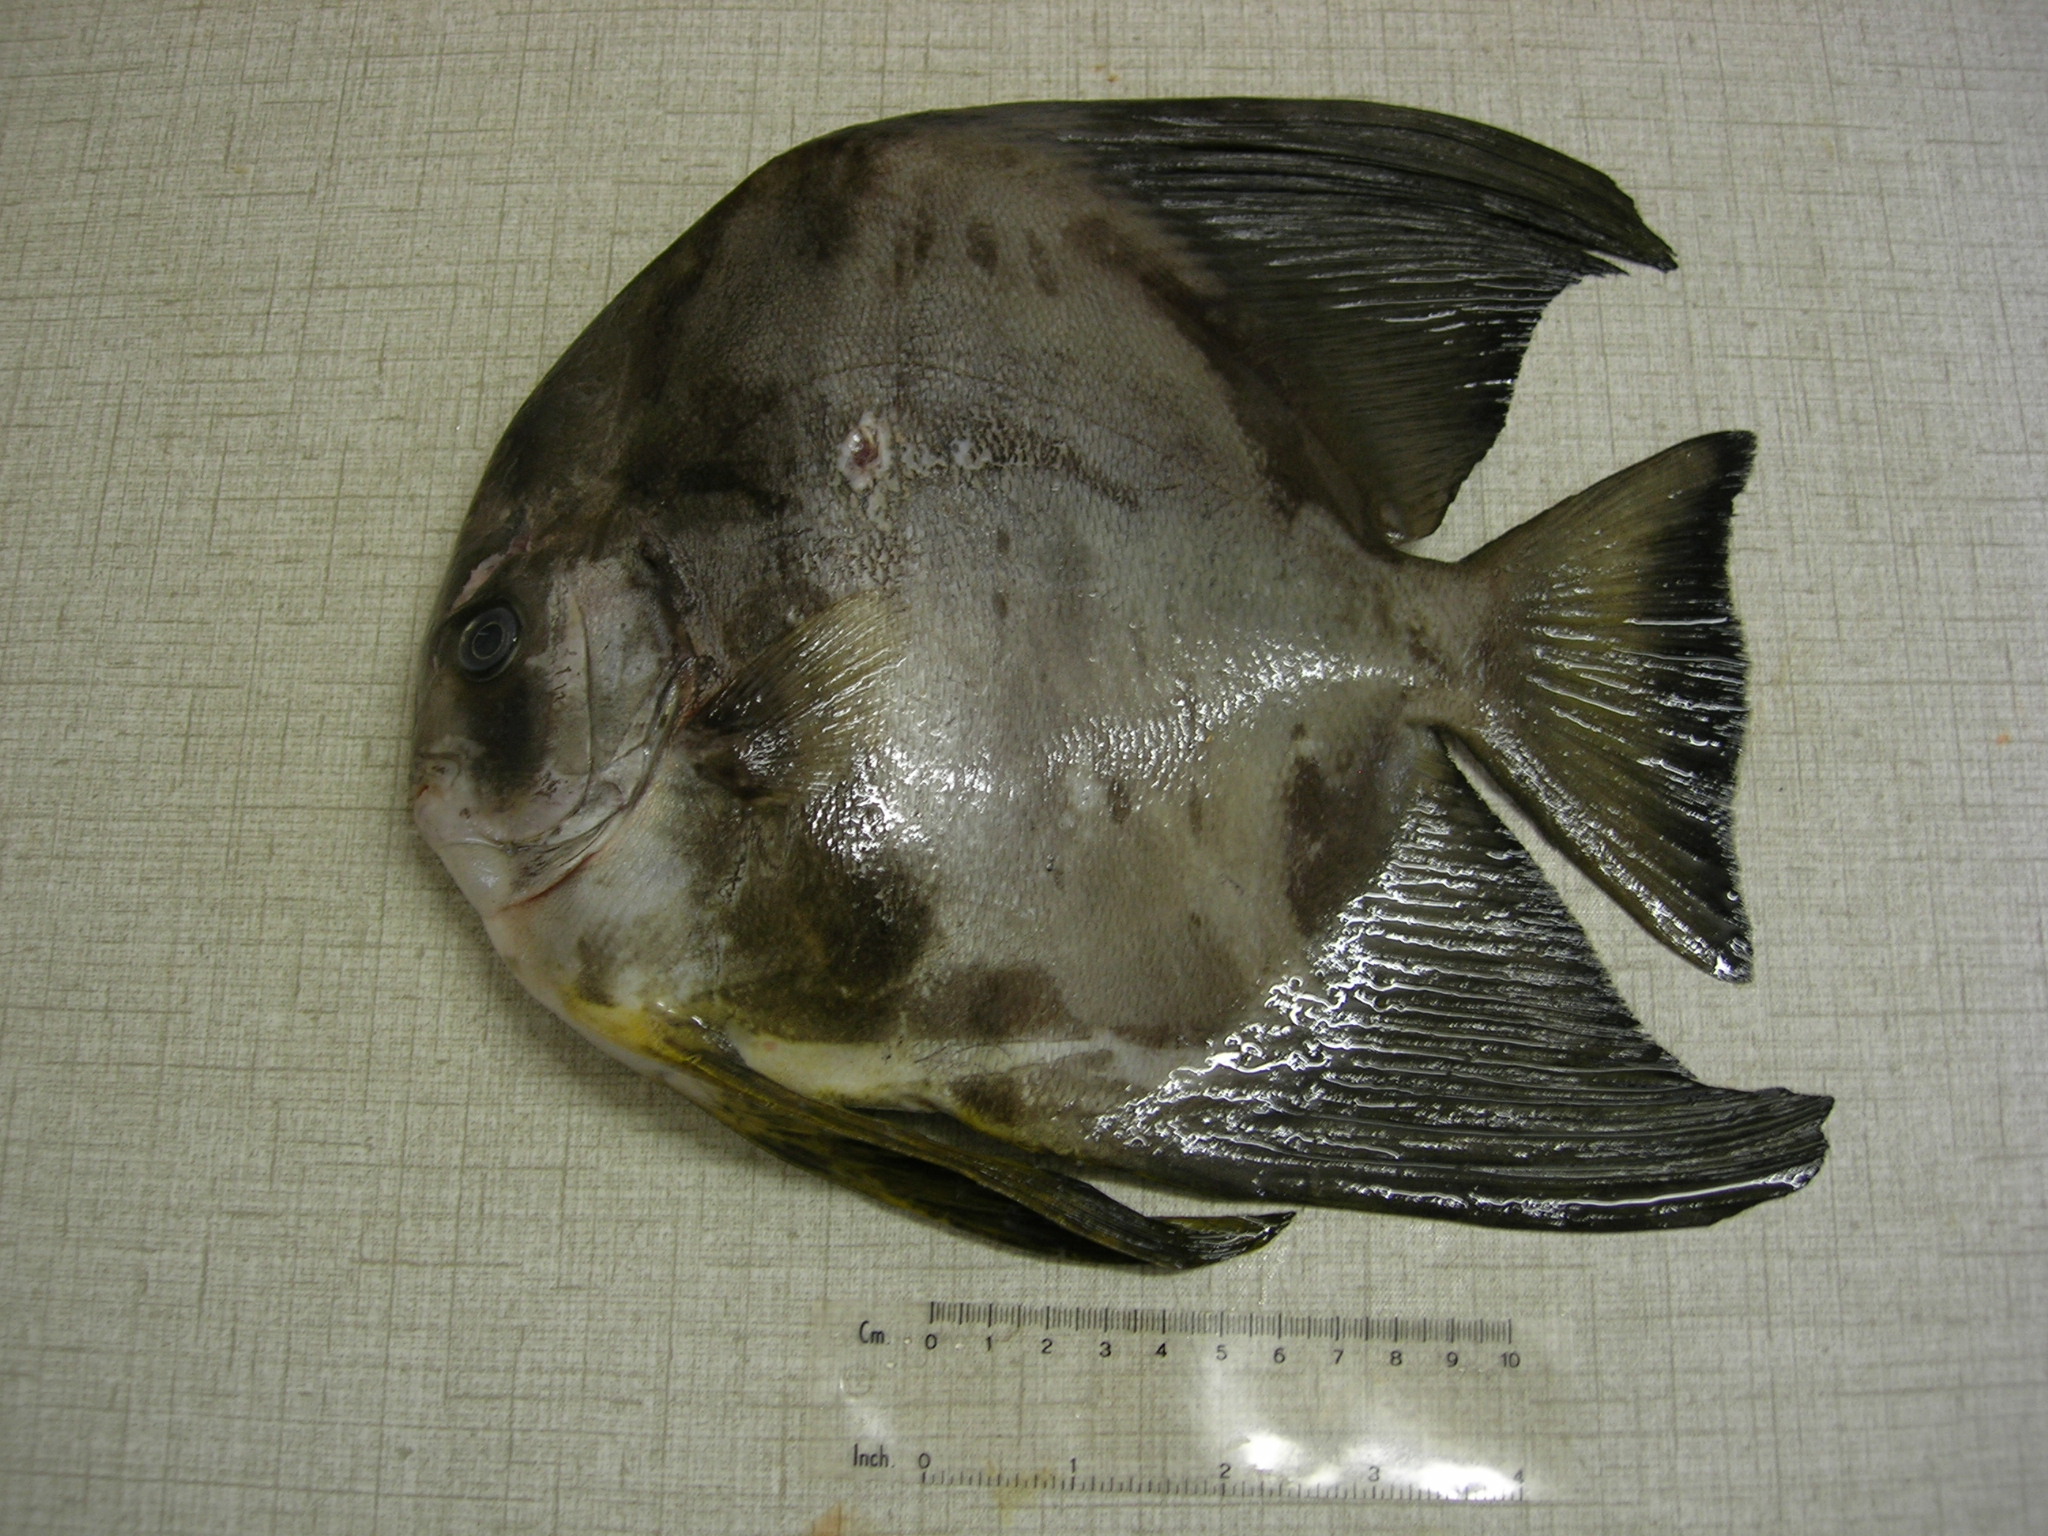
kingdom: Animalia
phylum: Chordata
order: Perciformes
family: Ephippidae
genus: Platax
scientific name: Platax teira
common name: Longfin baitfish
